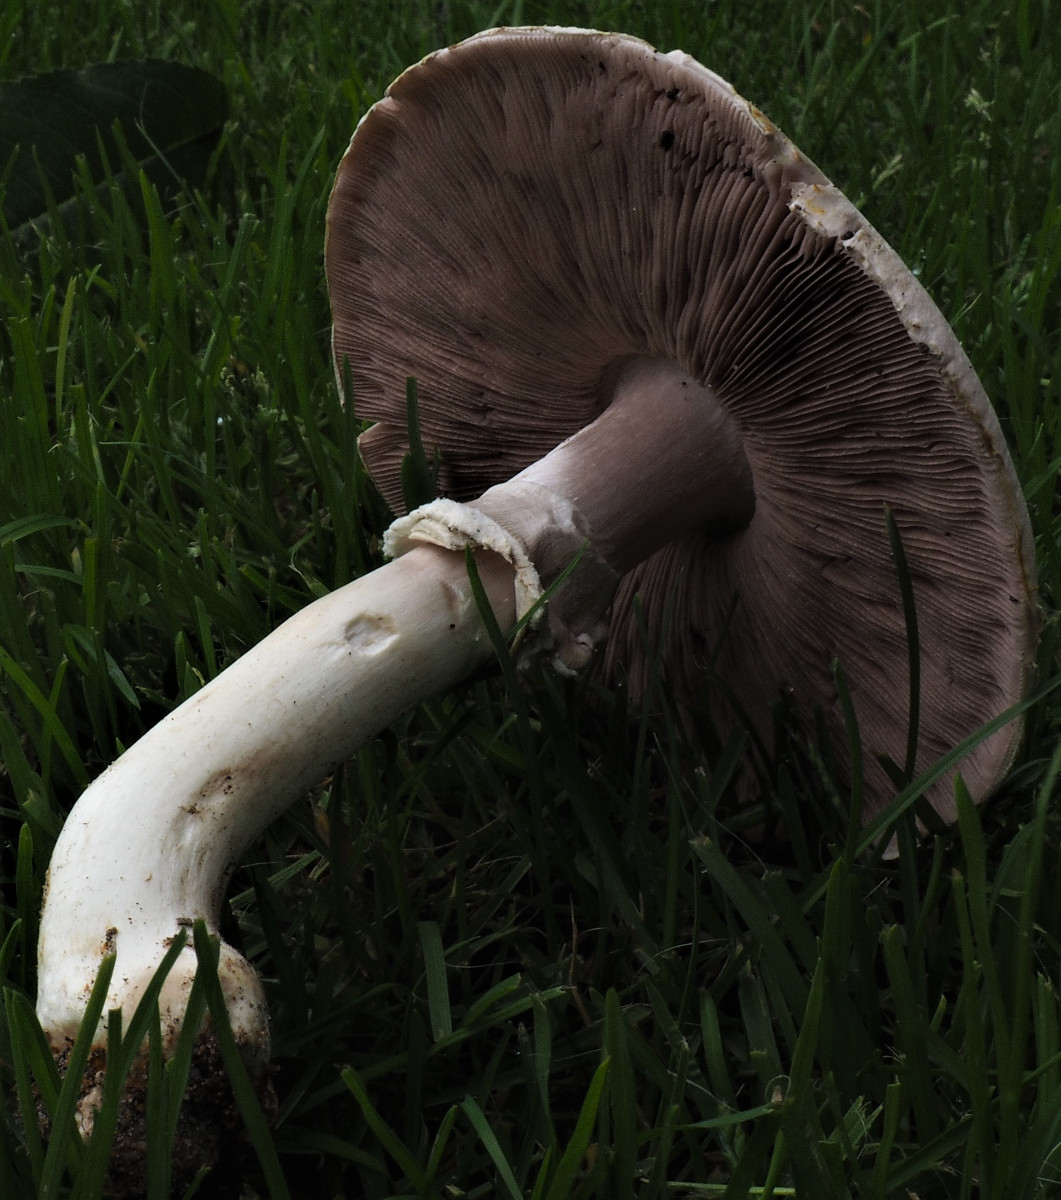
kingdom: Fungi
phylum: Basidiomycota
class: Agaricomycetes
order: Agaricales
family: Agaricaceae
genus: Agaricus
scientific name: Agaricus xanthodermus
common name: karbol-champignon
